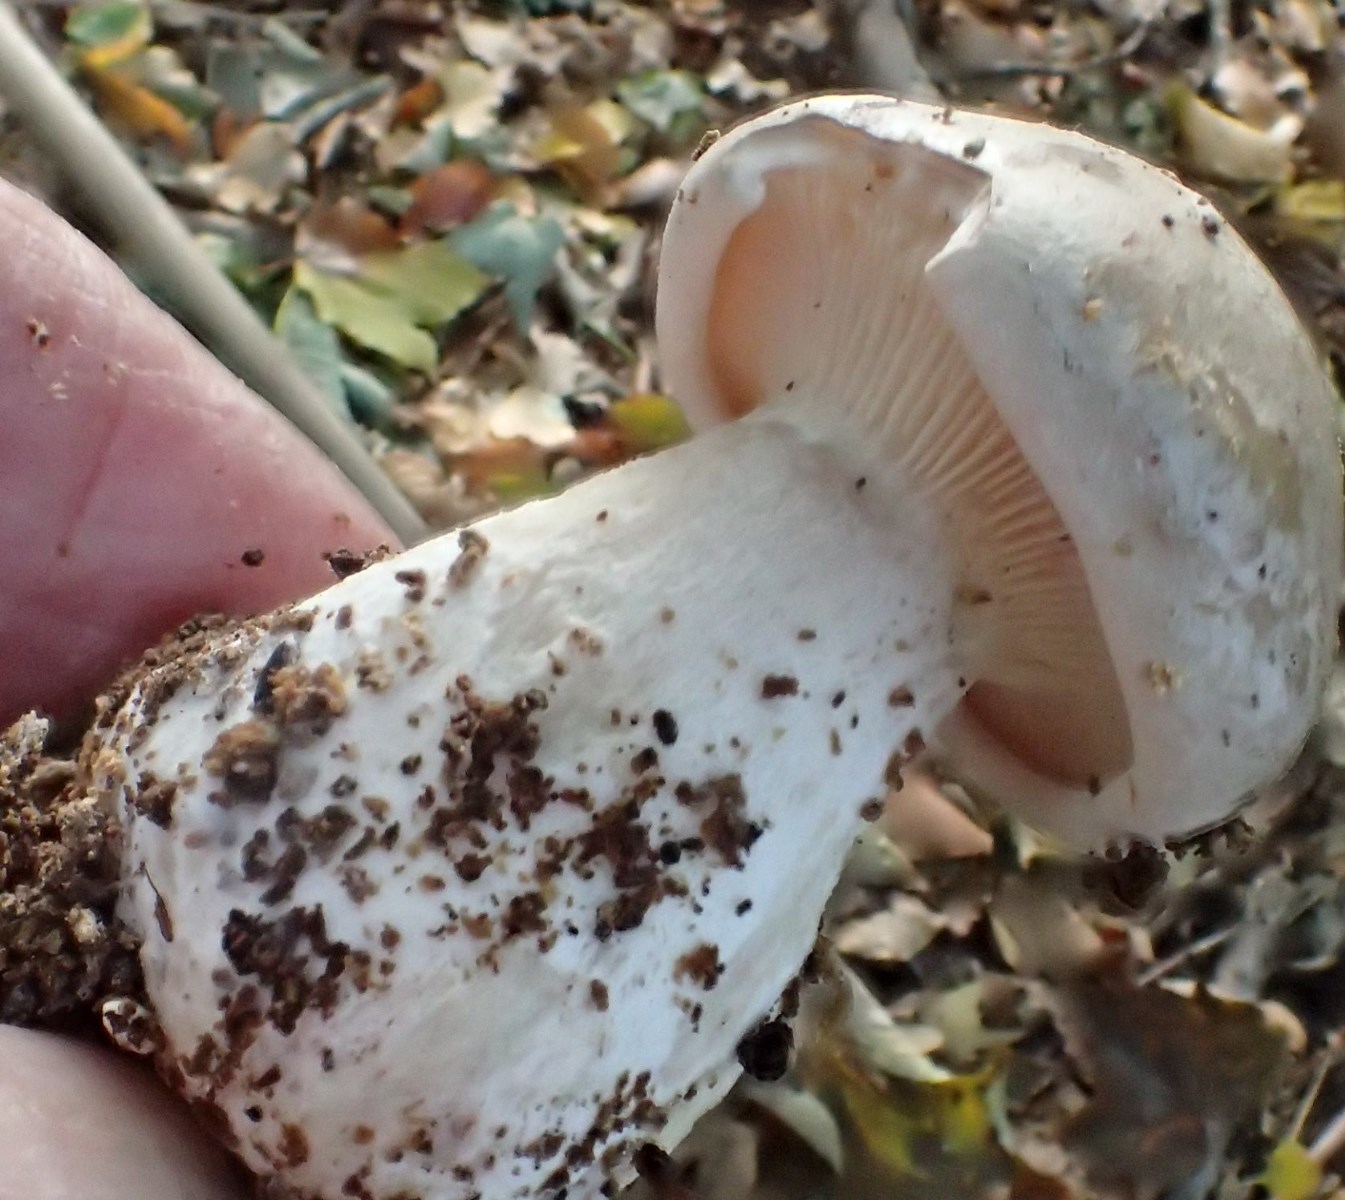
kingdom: Fungi
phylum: Basidiomycota
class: Agaricomycetes
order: Agaricales
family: Tricholomataceae
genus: Clitocybe
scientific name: Clitocybe nebularis
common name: tåge-tragthat
